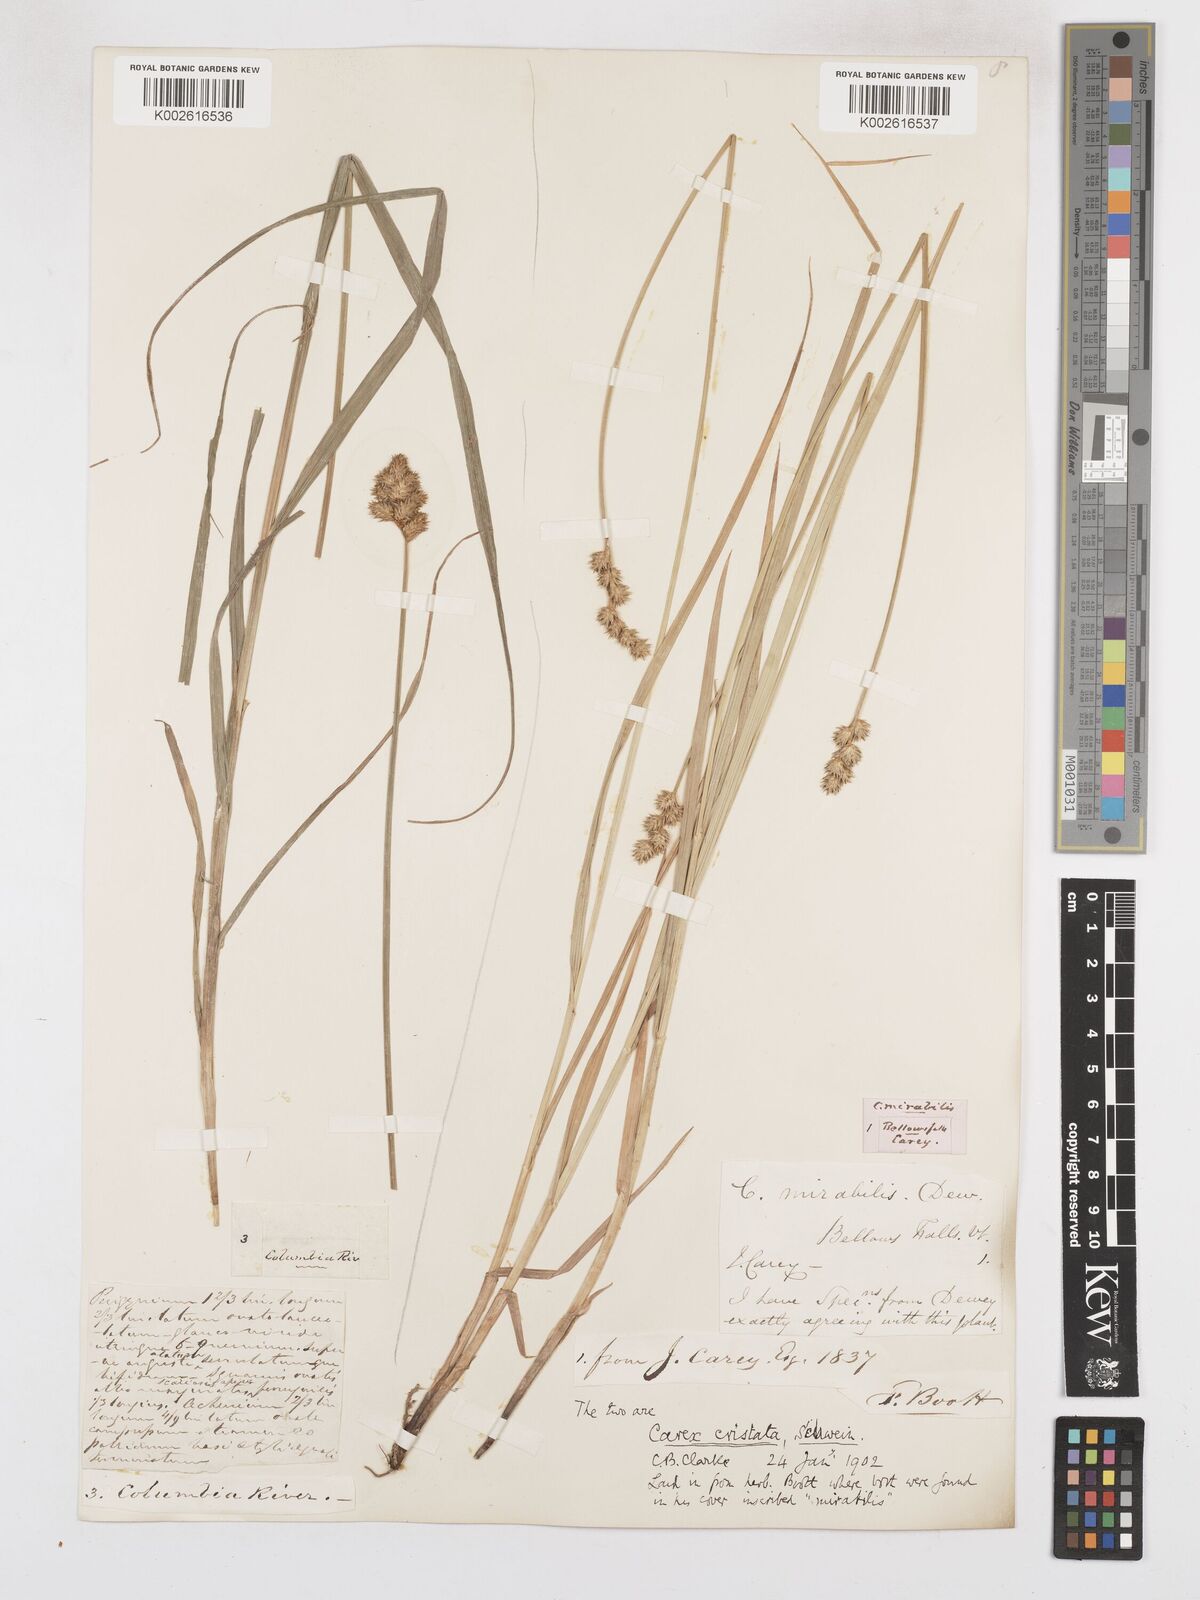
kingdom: Plantae
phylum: Tracheophyta
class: Liliopsida
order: Poales
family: Cyperaceae
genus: Carex
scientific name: Carex cristatella
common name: Crested oval sedge
